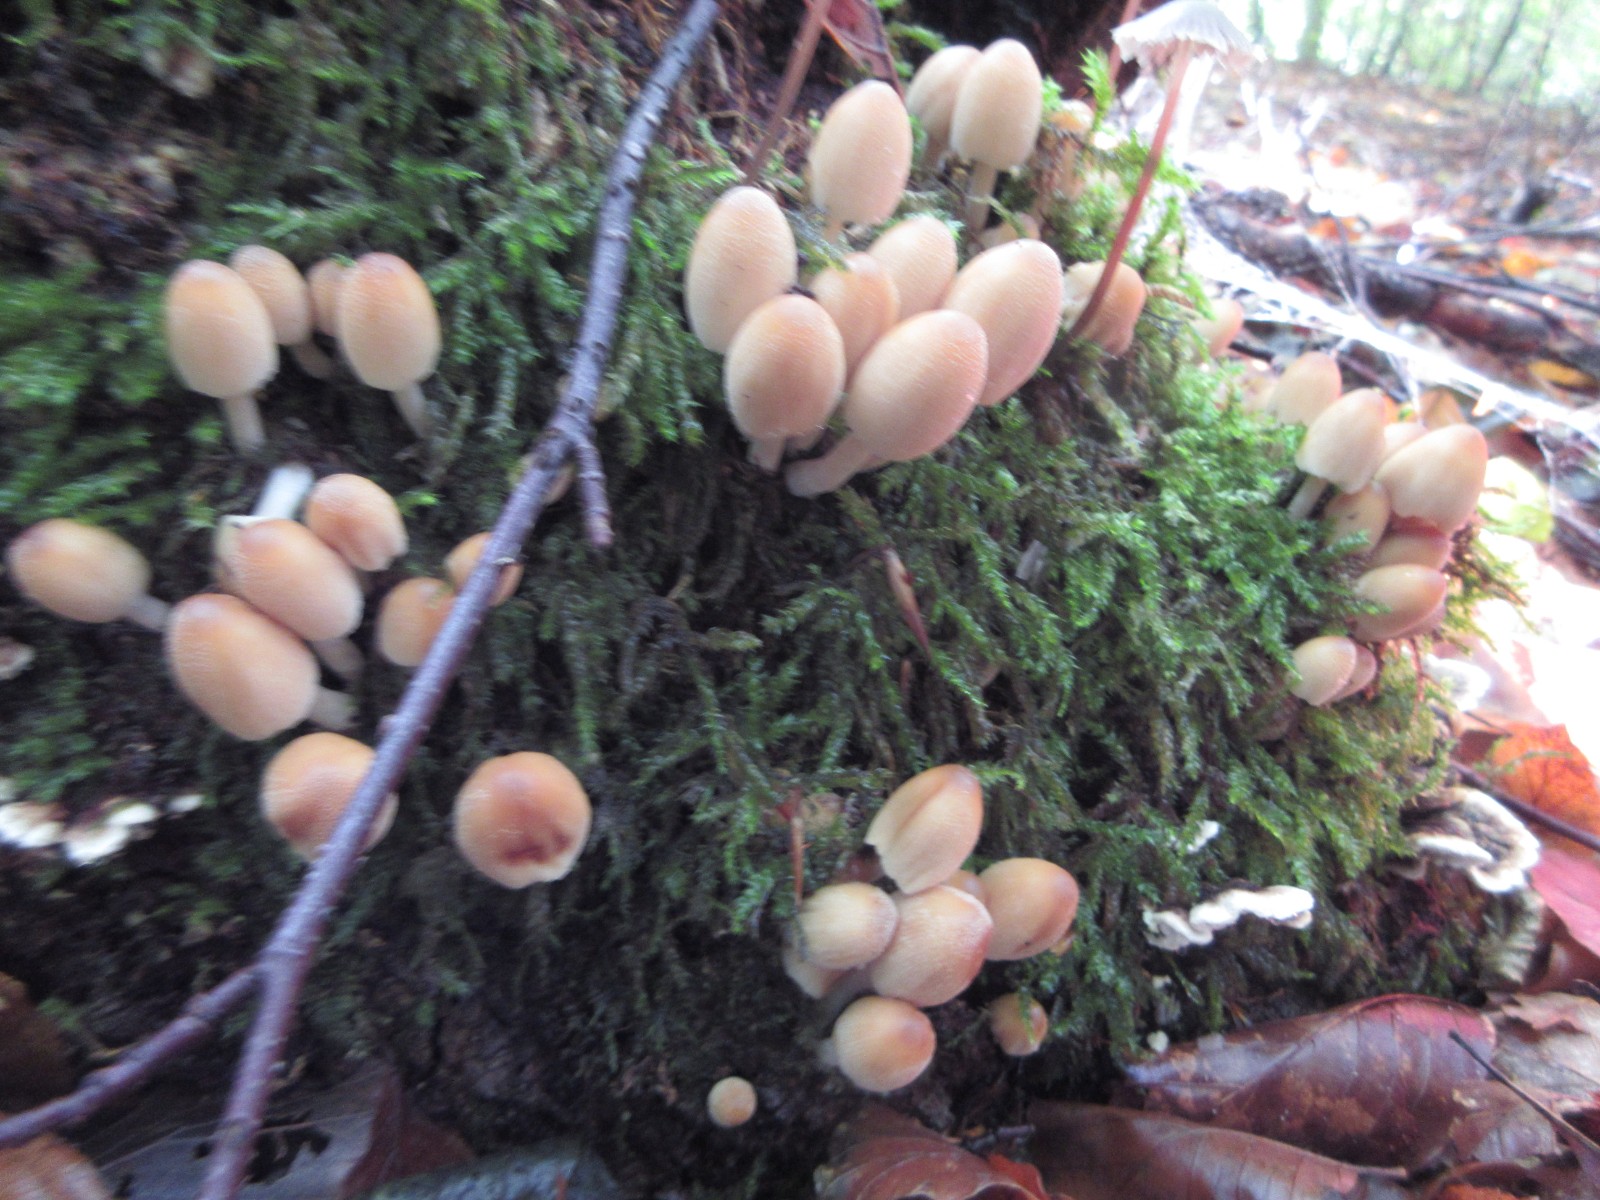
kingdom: Fungi
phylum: Basidiomycota
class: Agaricomycetes
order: Agaricales
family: Psathyrellaceae
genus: Coprinellus
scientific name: Coprinellus disseminatus
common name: bredsået blækhat
